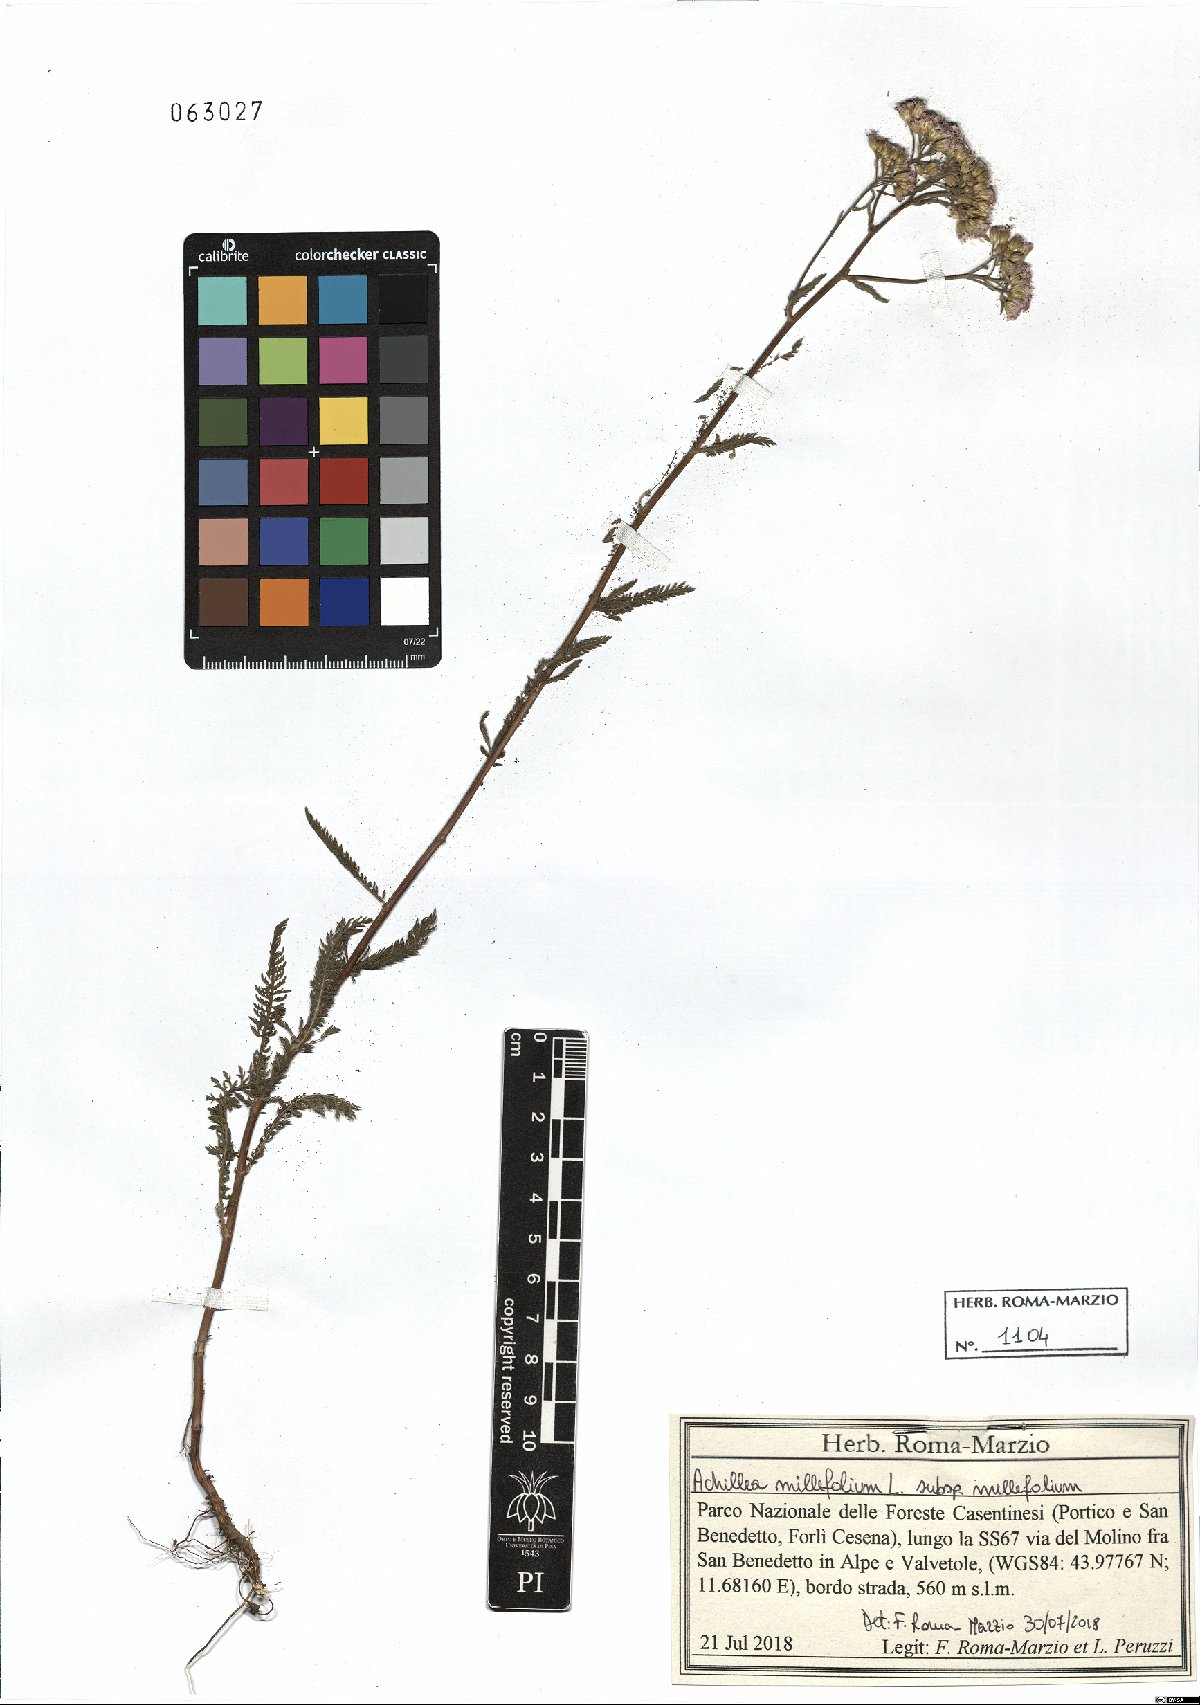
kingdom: Plantae
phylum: Tracheophyta
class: Magnoliopsida
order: Asterales
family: Asteraceae
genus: Achillea
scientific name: Achillea millefolium
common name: Yarrow
